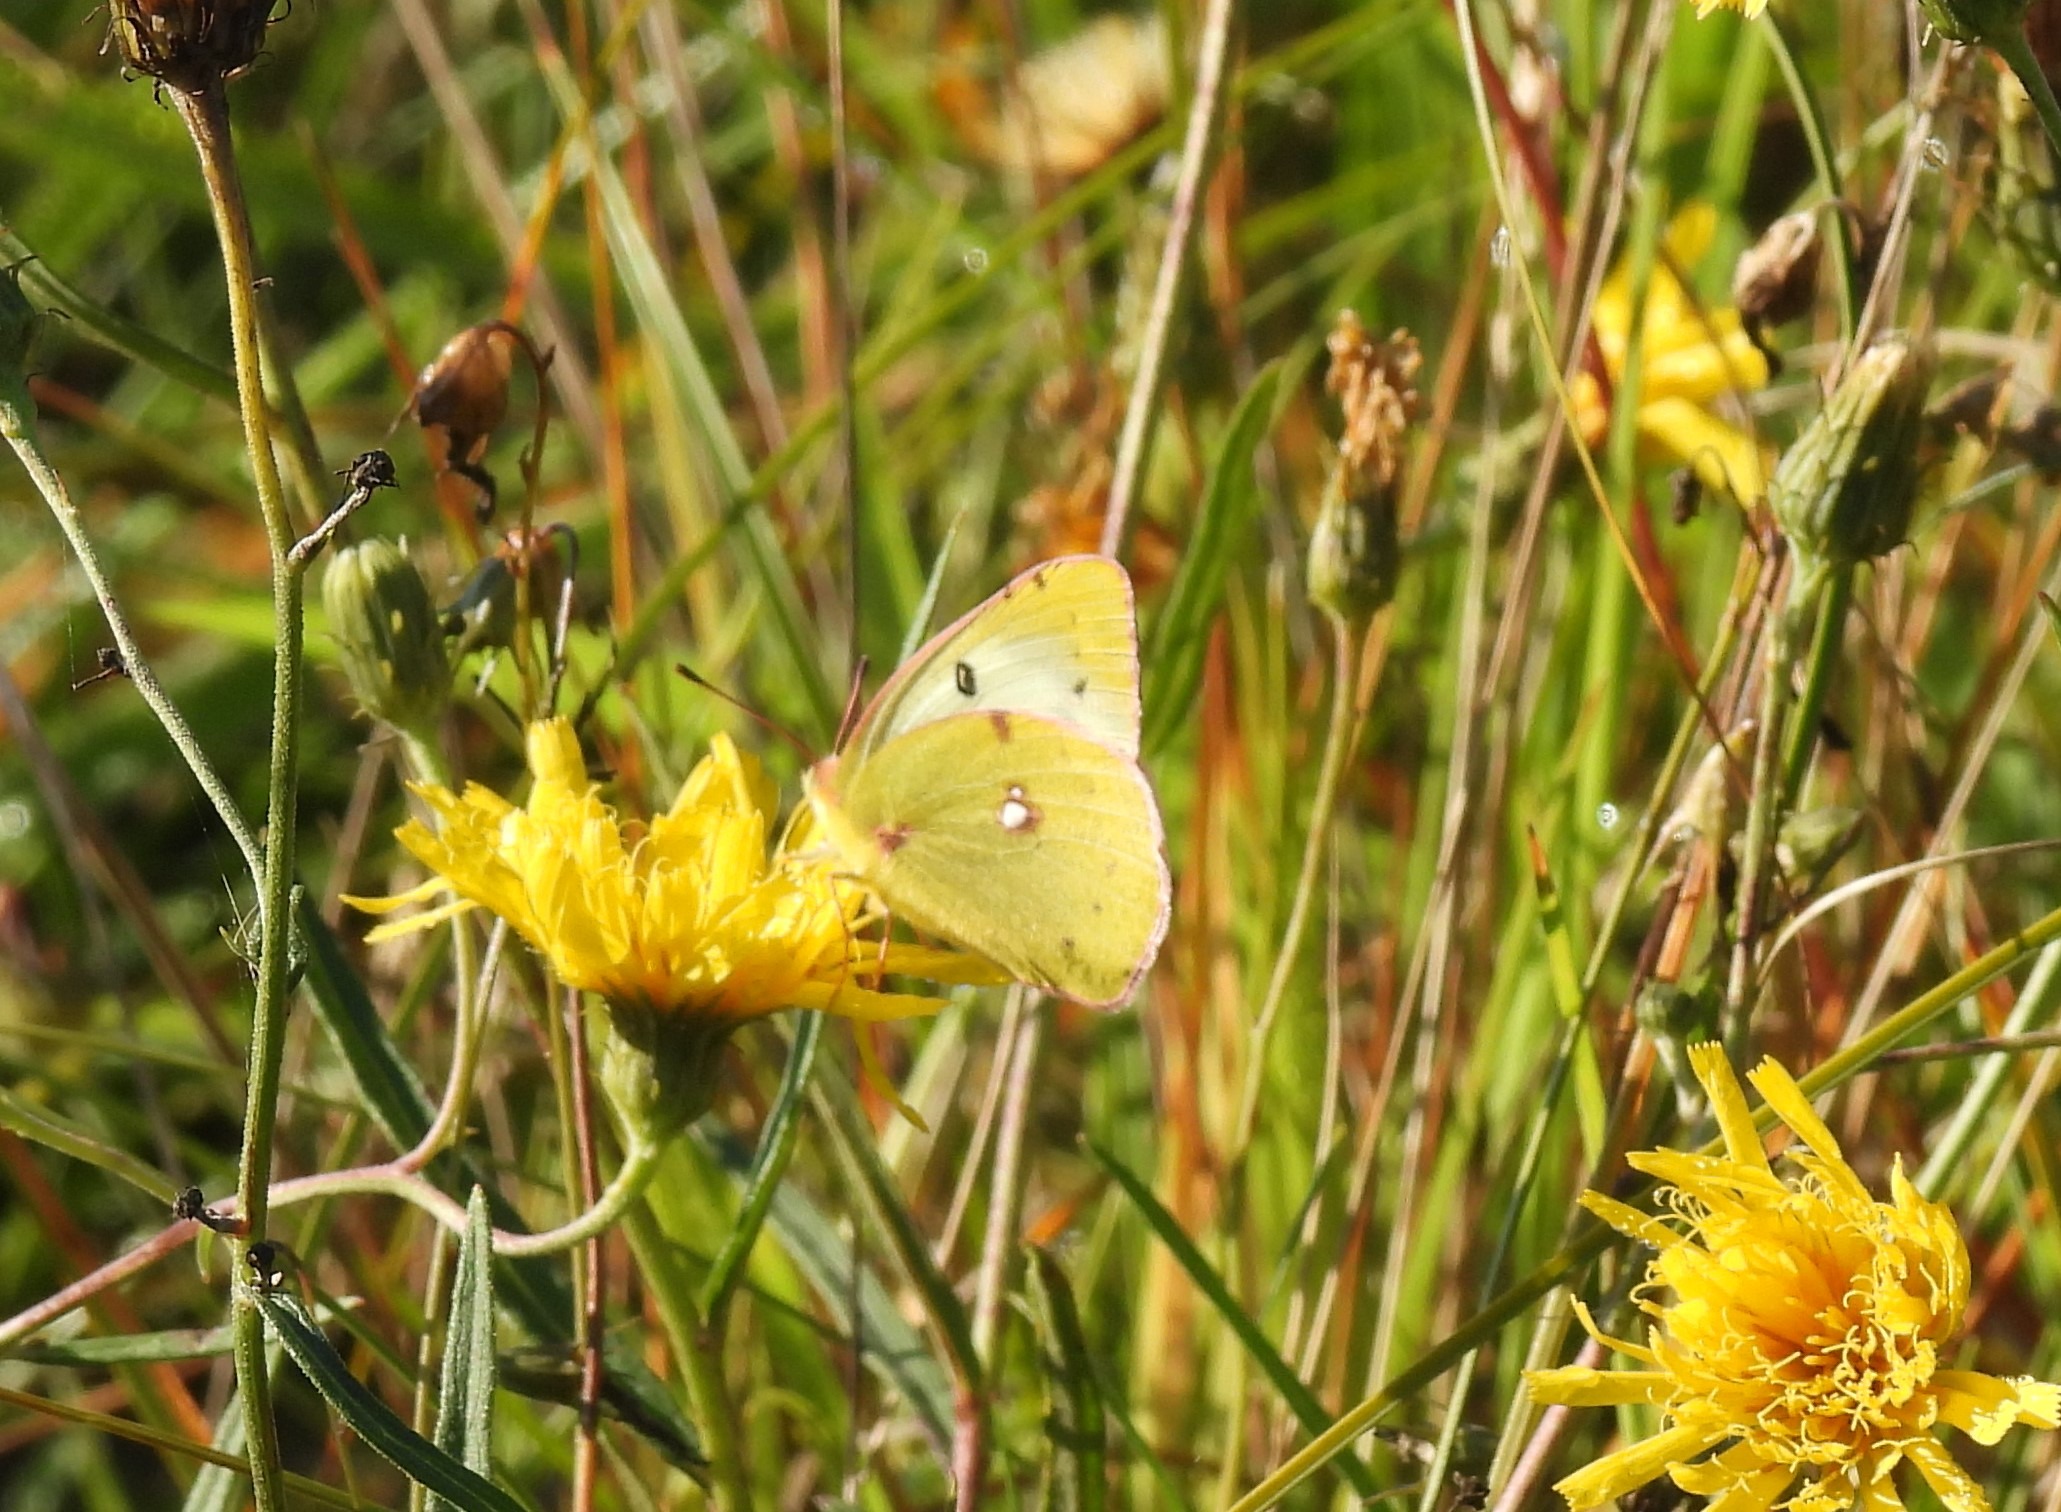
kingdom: Animalia
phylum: Arthropoda
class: Insecta
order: Lepidoptera
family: Pieridae
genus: Colias
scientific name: Colias hyale
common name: Gul høsommerfugl
